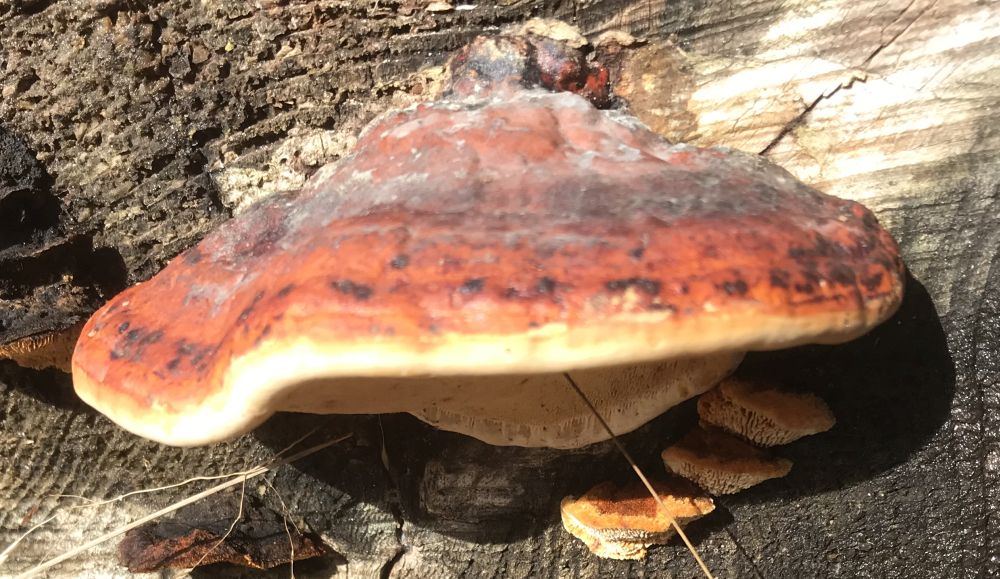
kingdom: Fungi
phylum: Basidiomycota
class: Agaricomycetes
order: Polyporales
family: Fomitopsidaceae
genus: Fomitopsis
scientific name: Fomitopsis pinicola
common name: randbæltet hovporesvamp
